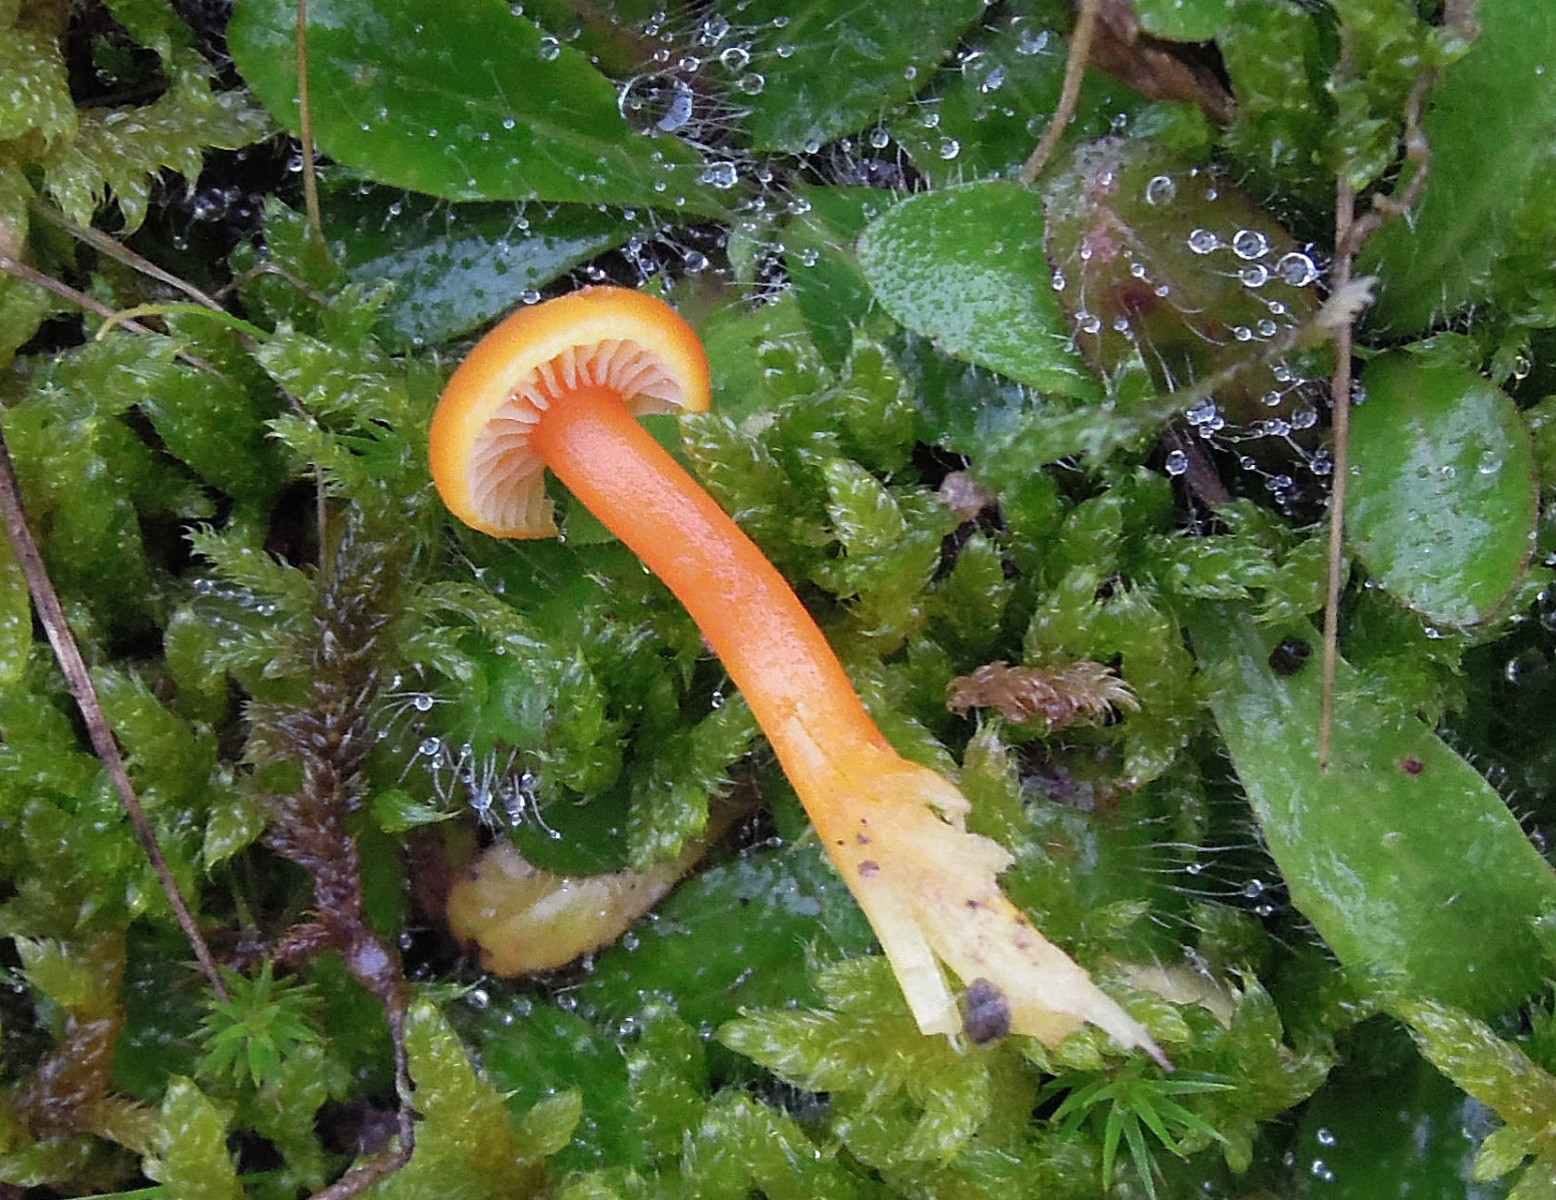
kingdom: Fungi
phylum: Basidiomycota
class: Agaricomycetes
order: Agaricales
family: Hygrophoraceae
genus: Hygrocybe
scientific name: Hygrocybe insipida
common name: liden vokshat
